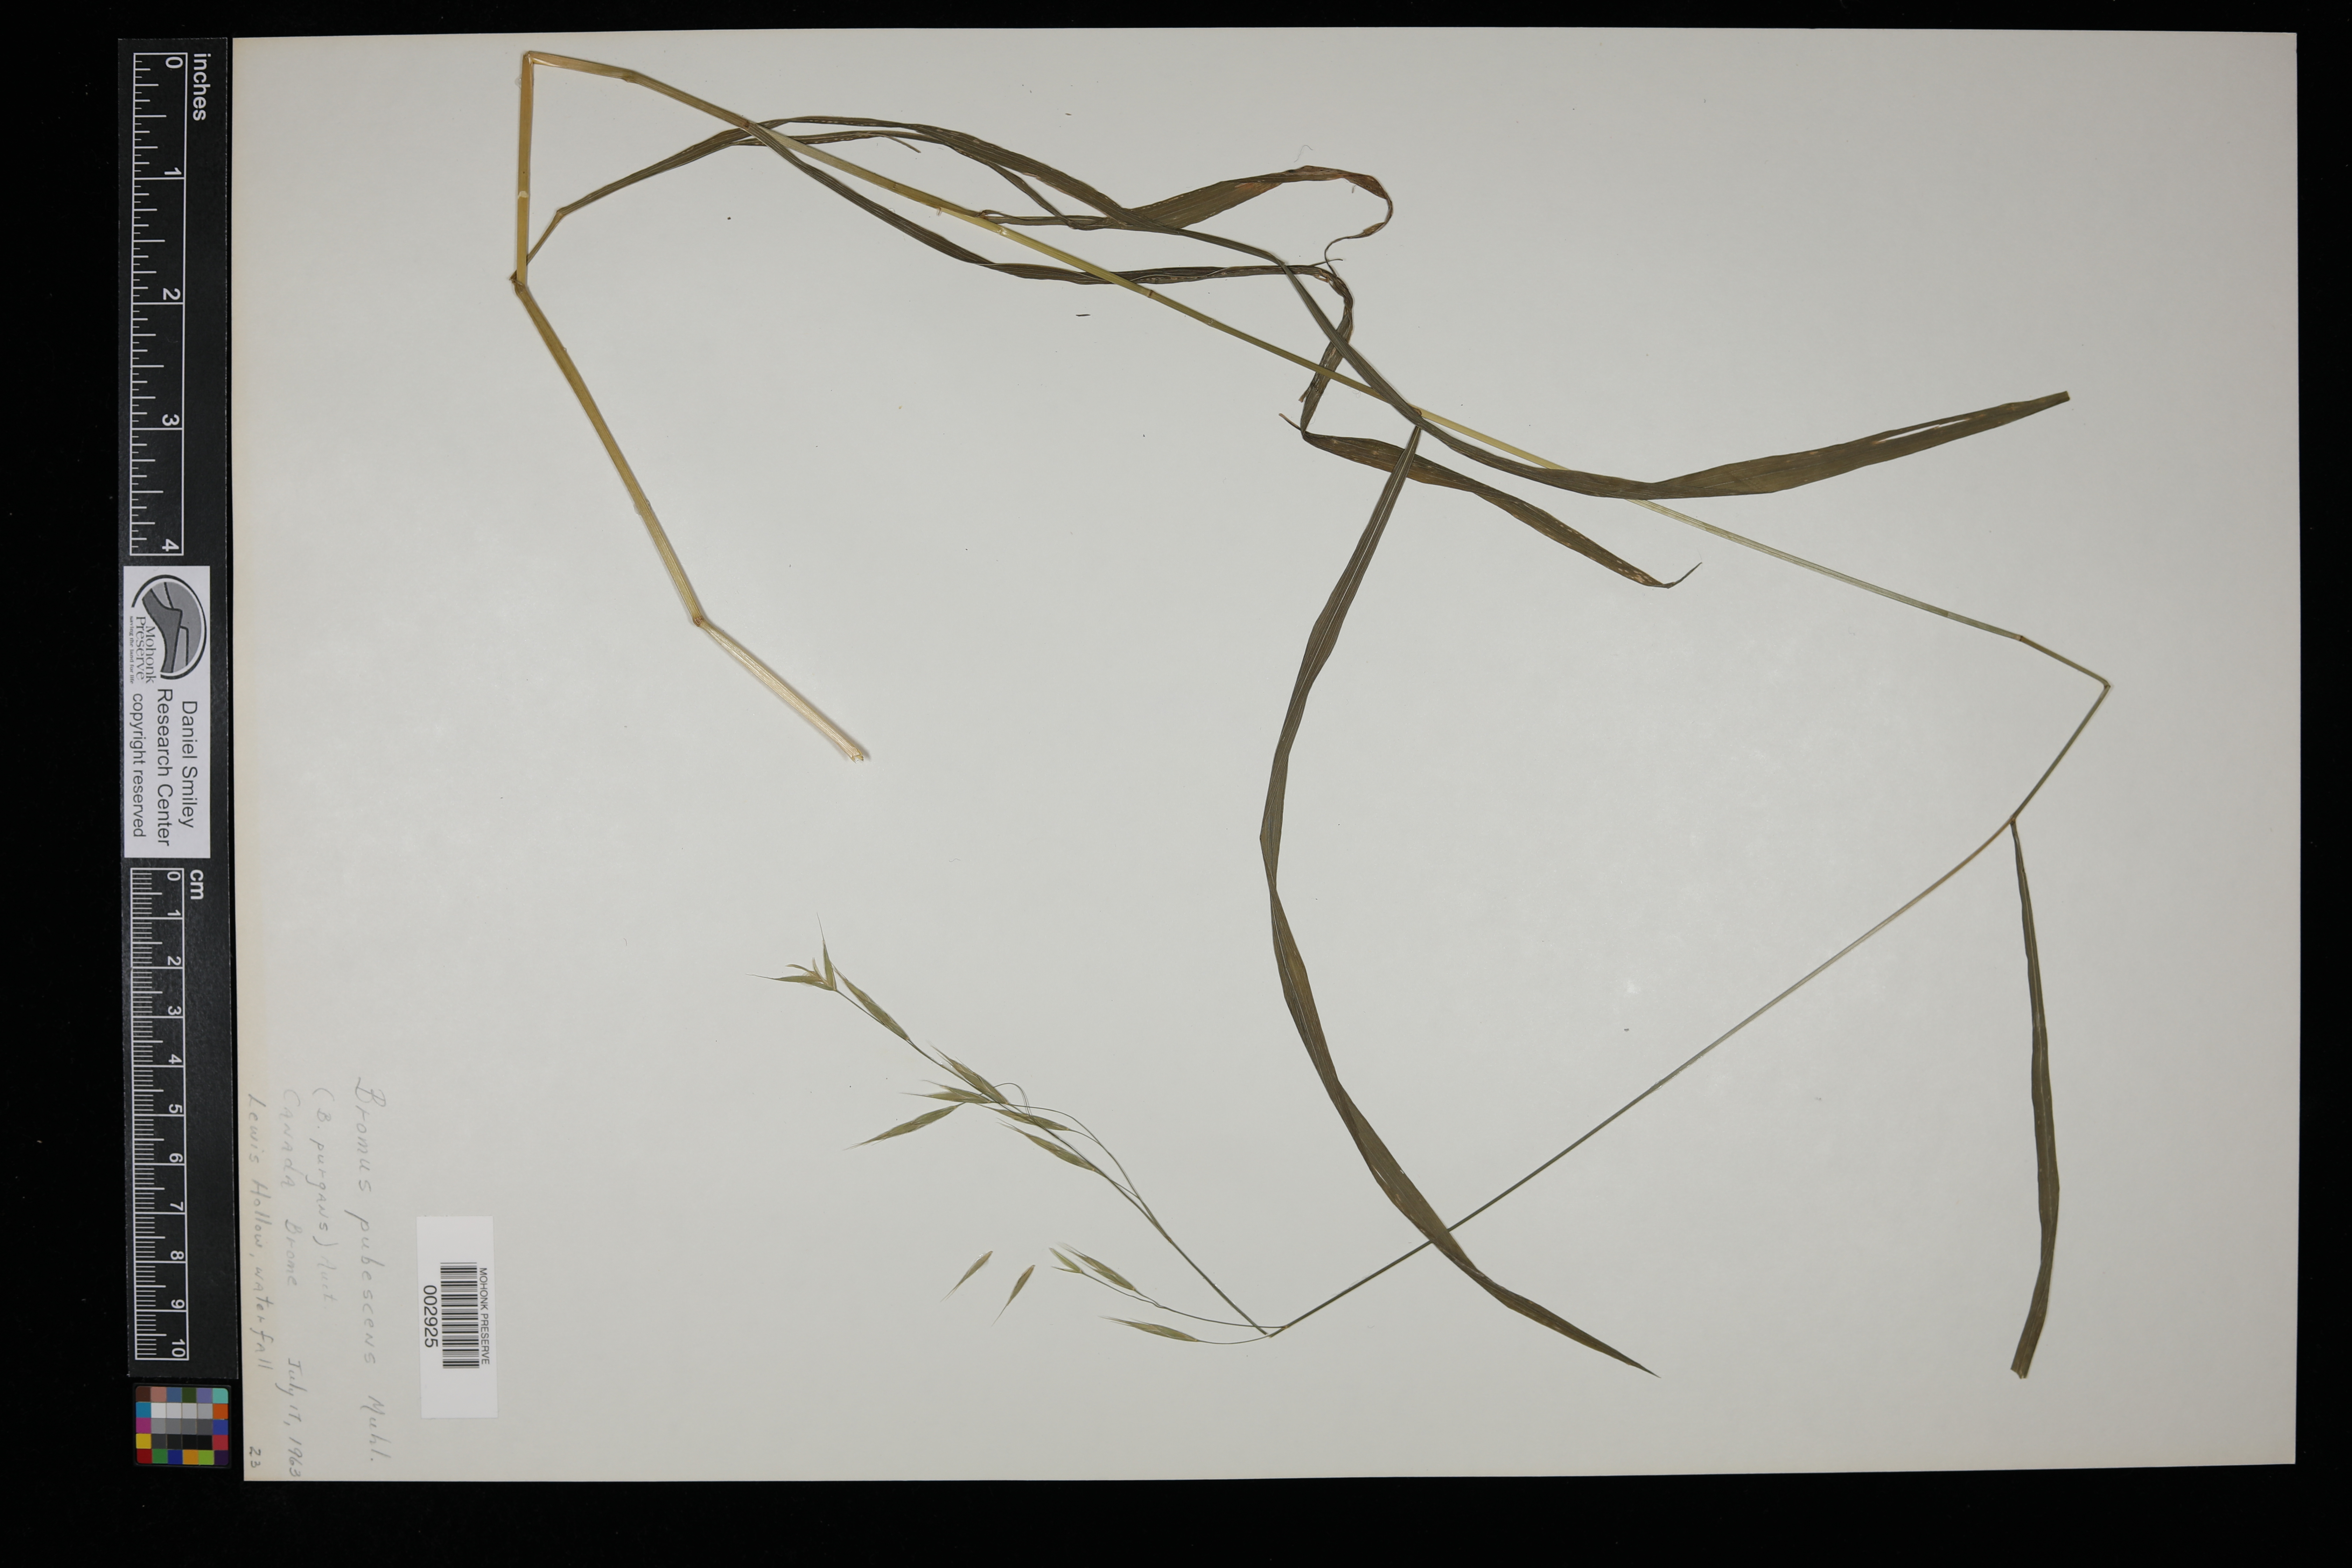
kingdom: Plantae
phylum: Tracheophyta
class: Liliopsida
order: Poales
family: Poaceae
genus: Bromus
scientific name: Bromus pubescens
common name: Hairy wood brome grass
